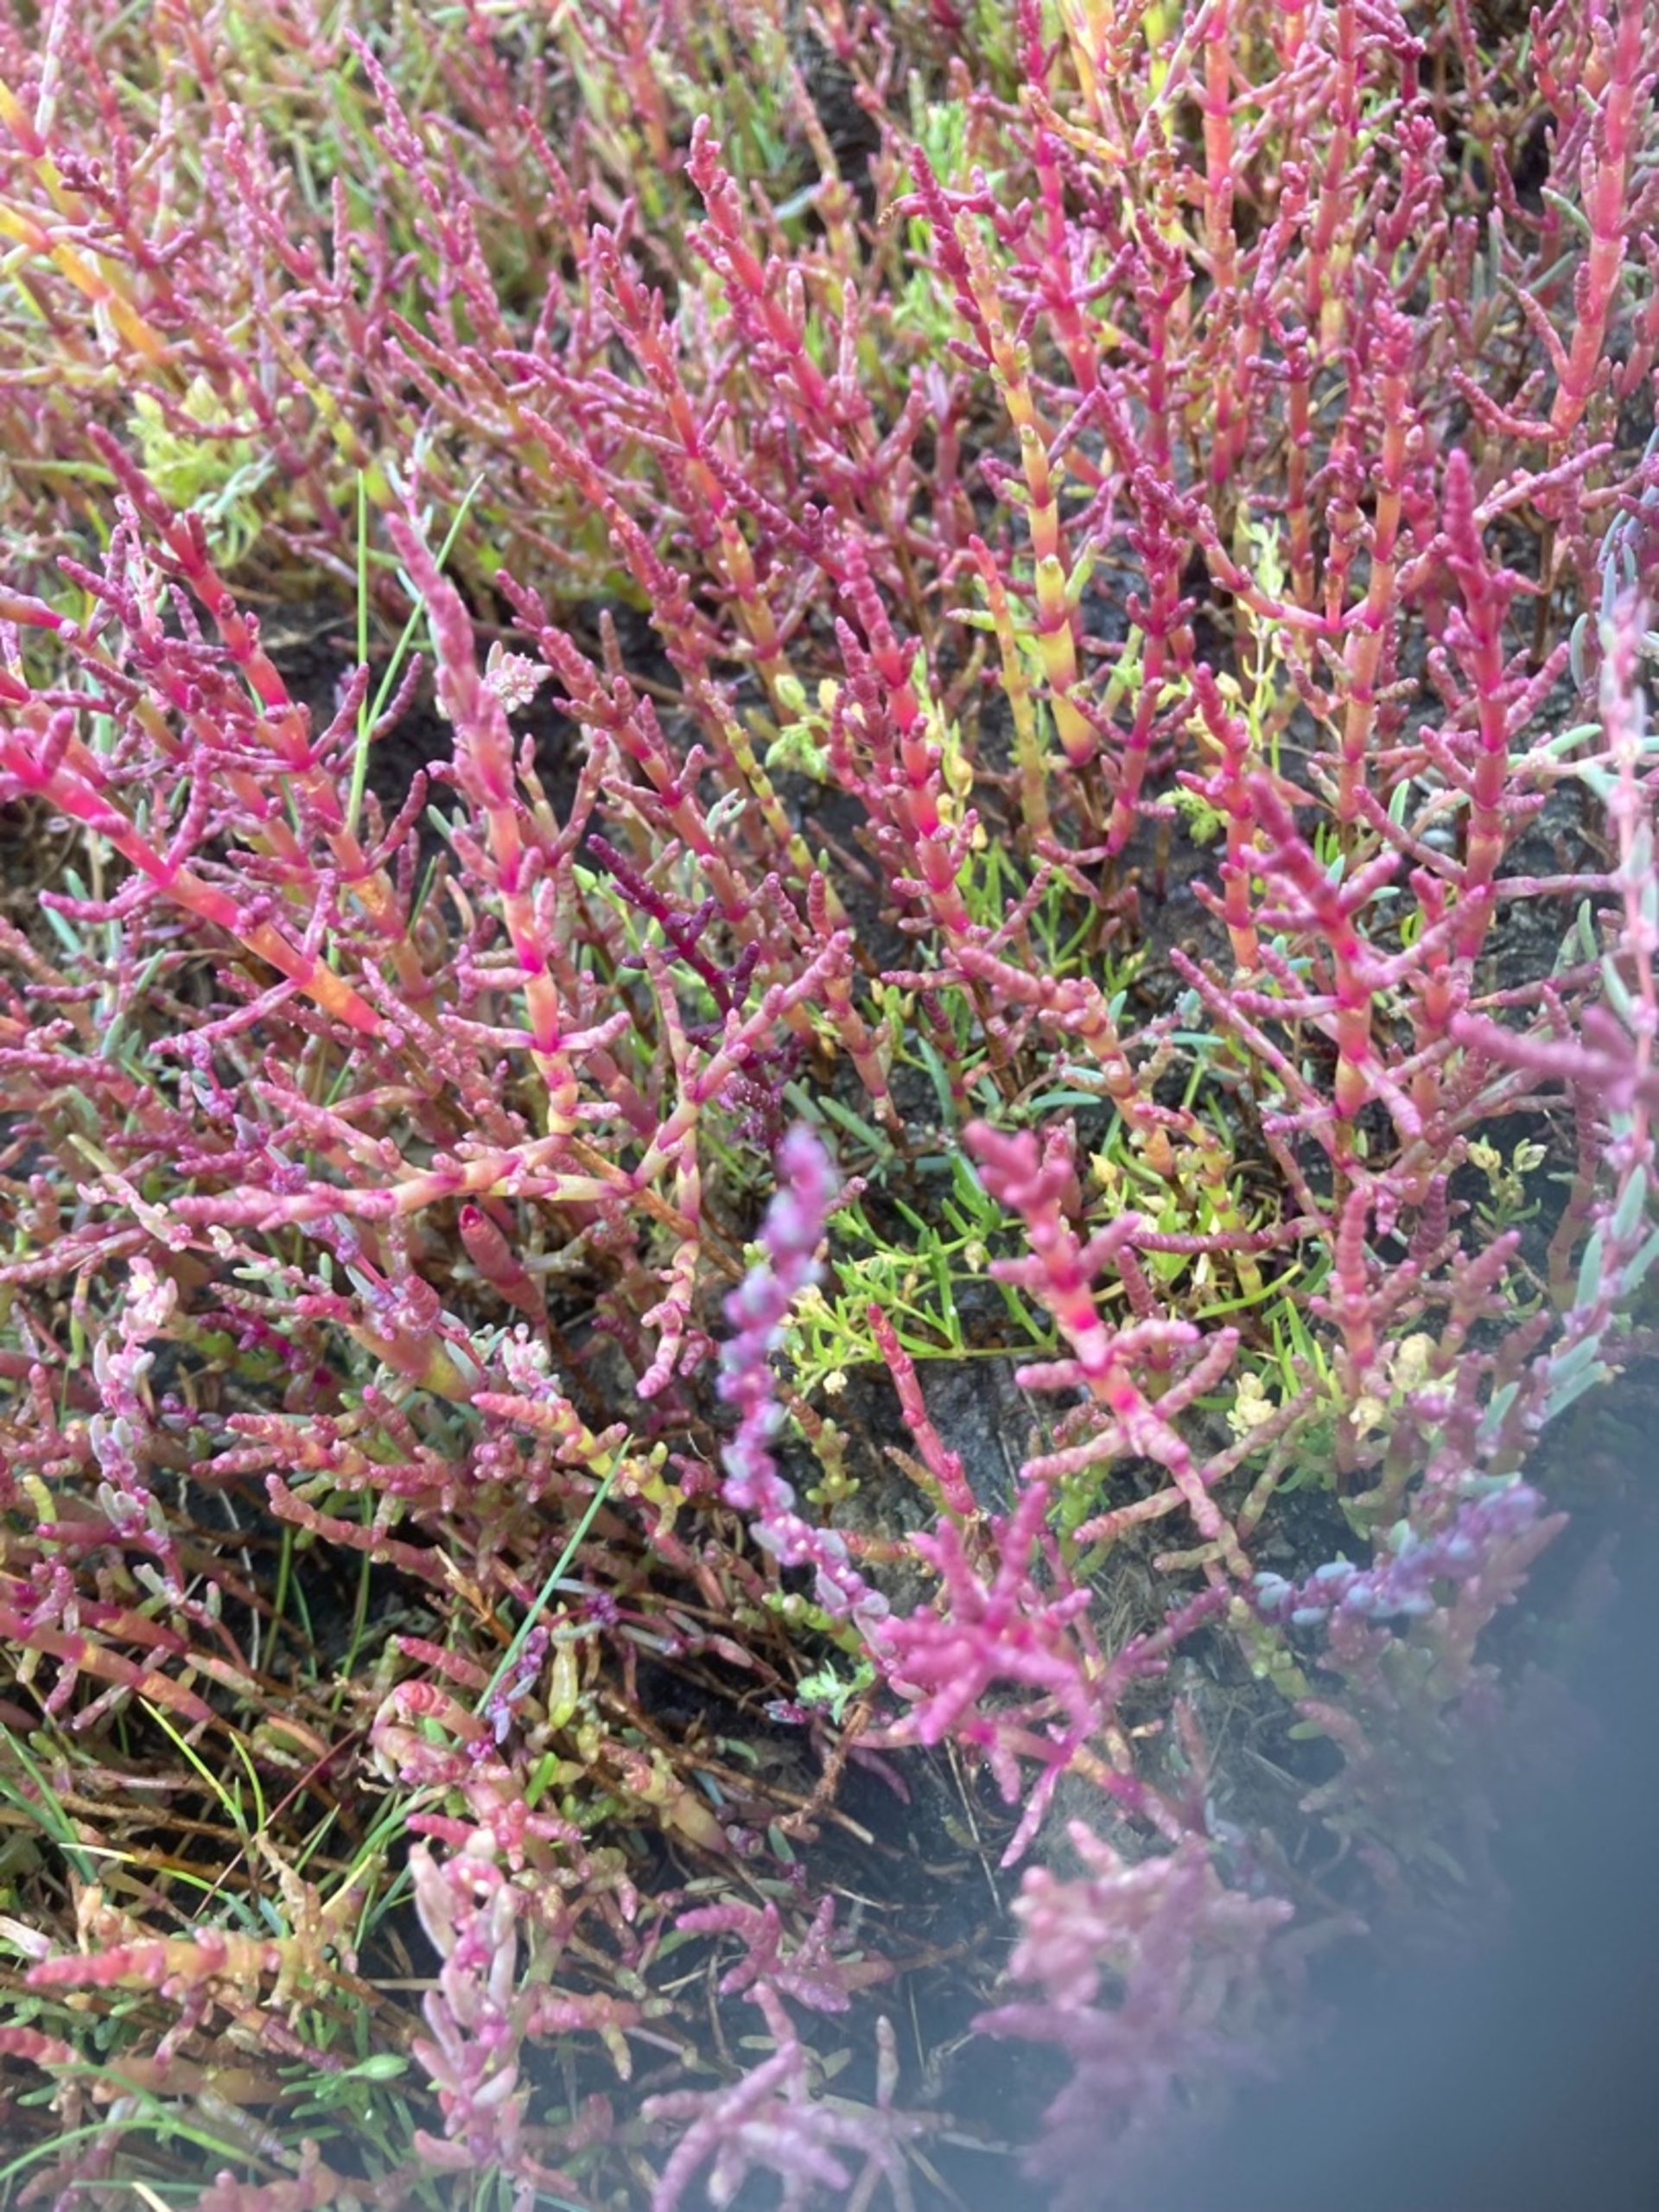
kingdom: Plantae
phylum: Tracheophyta
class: Magnoliopsida
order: Caryophyllales
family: Amaranthaceae
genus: Salicornia
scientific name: Salicornia europaea
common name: Almindelig salturt
